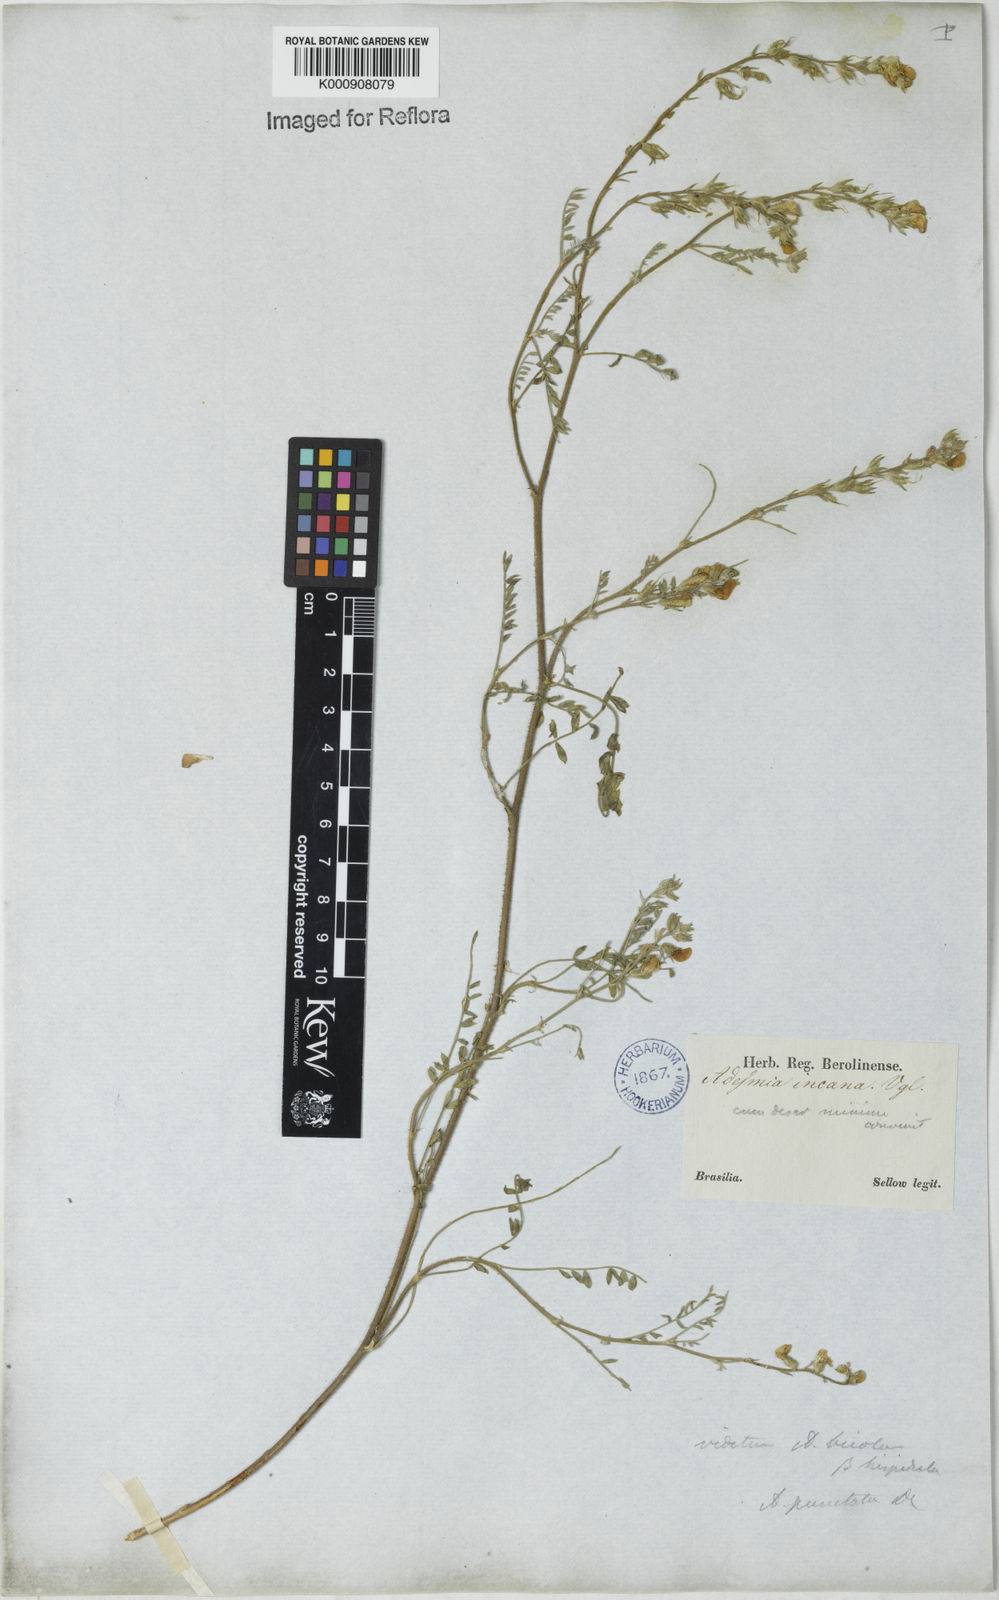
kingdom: Plantae
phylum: Tracheophyta
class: Magnoliopsida
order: Fabales
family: Fabaceae
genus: Adesmia
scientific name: Adesmia punctata
